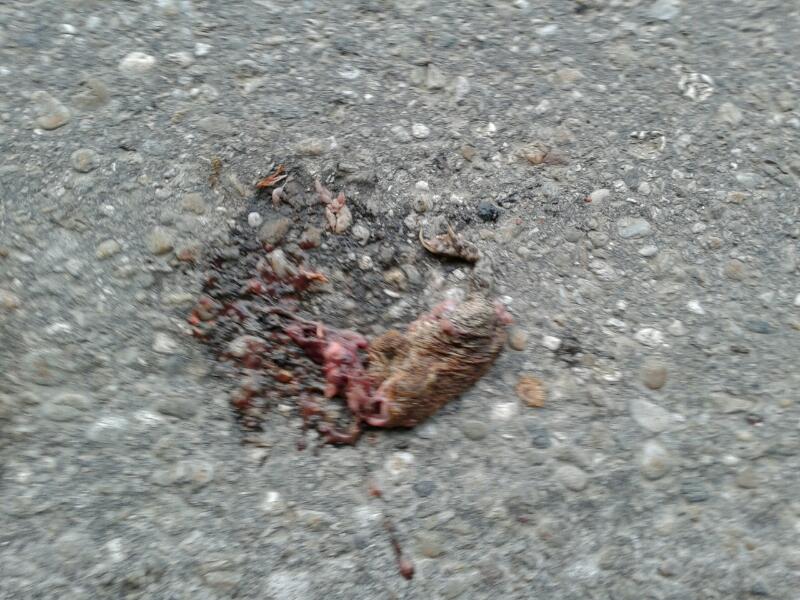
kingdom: Animalia
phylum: Chordata
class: Mammalia
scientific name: Mammalia
